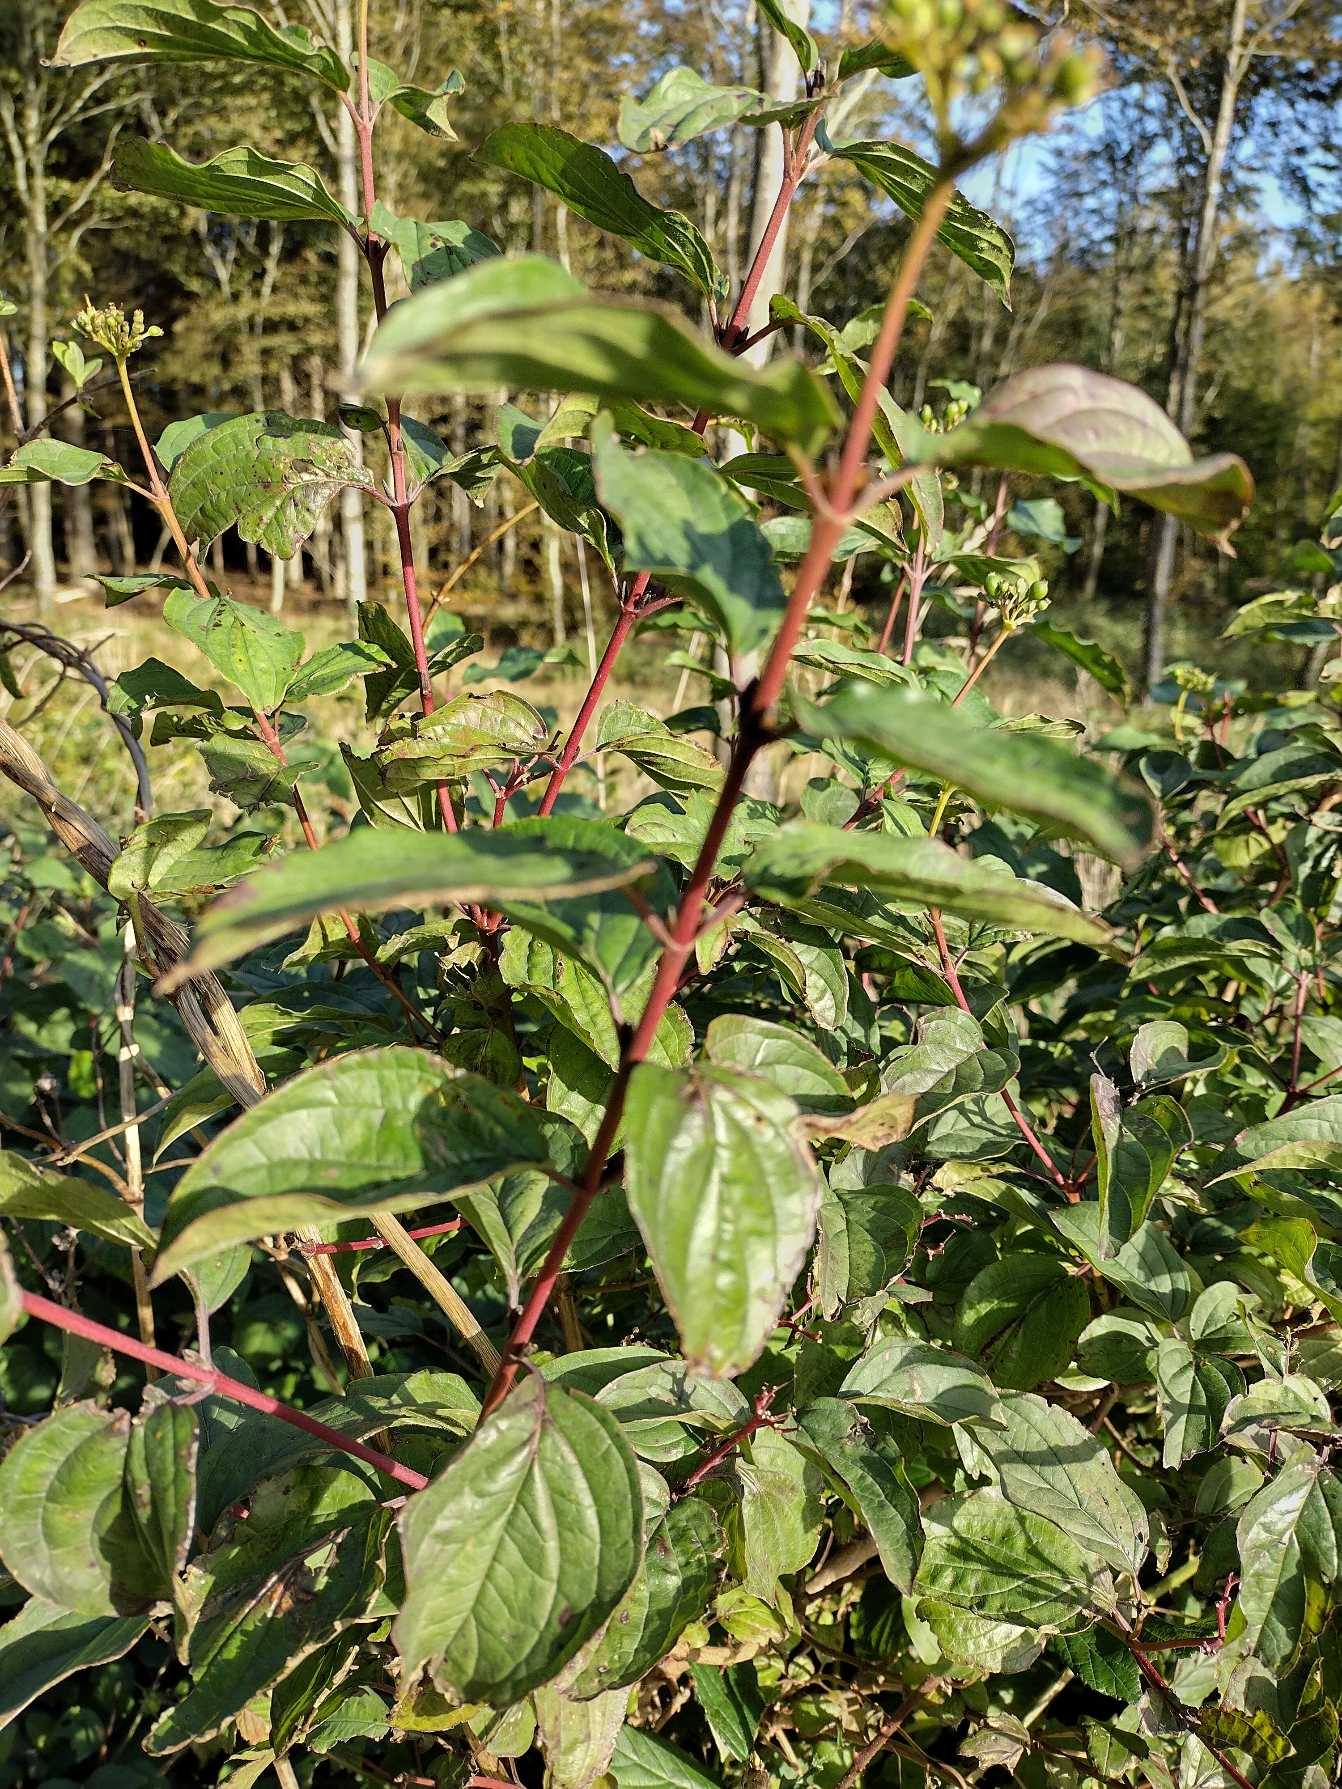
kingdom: Plantae
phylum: Tracheophyta
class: Magnoliopsida
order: Cornales
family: Cornaceae
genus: Cornus
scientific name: Cornus sanguinea
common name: Rød kornel
